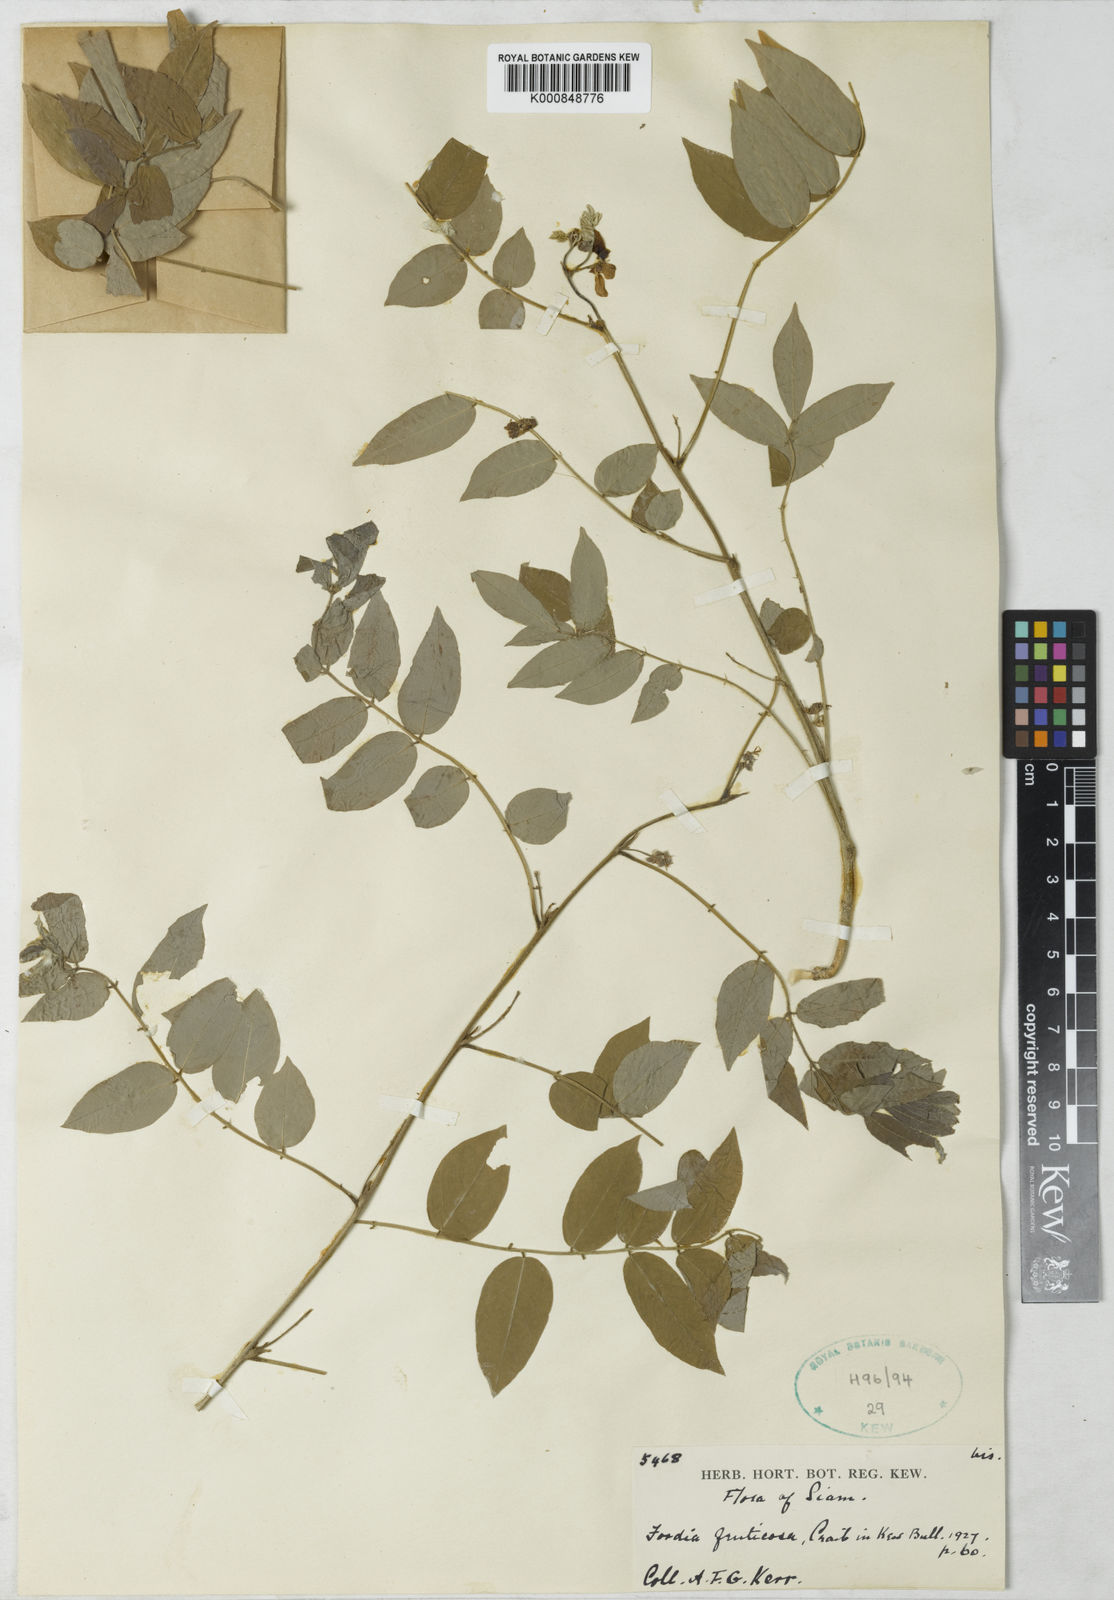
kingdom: Plantae
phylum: Tracheophyta
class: Magnoliopsida
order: Fabales
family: Fabaceae
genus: Millettia
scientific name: Millettia
